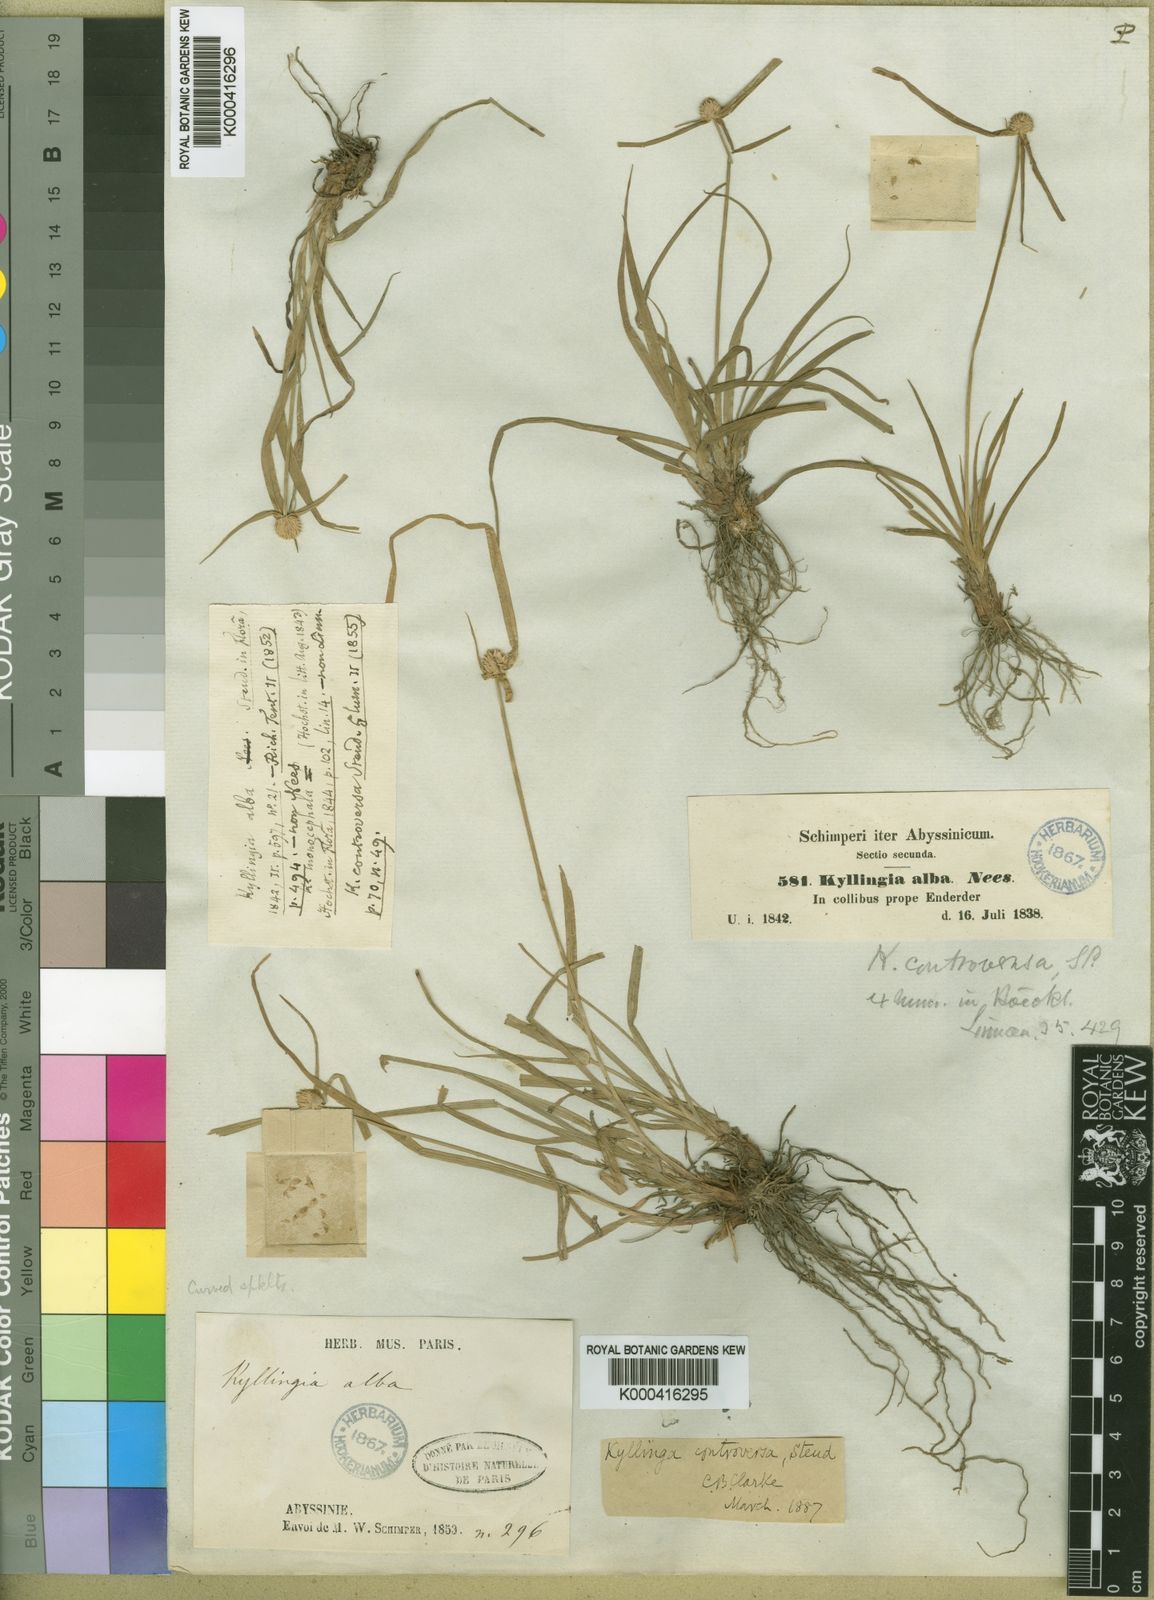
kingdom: Plantae
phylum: Tracheophyta
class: Liliopsida
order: Poales
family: Cyperaceae
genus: Cyperus
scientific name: Cyperus controversus
